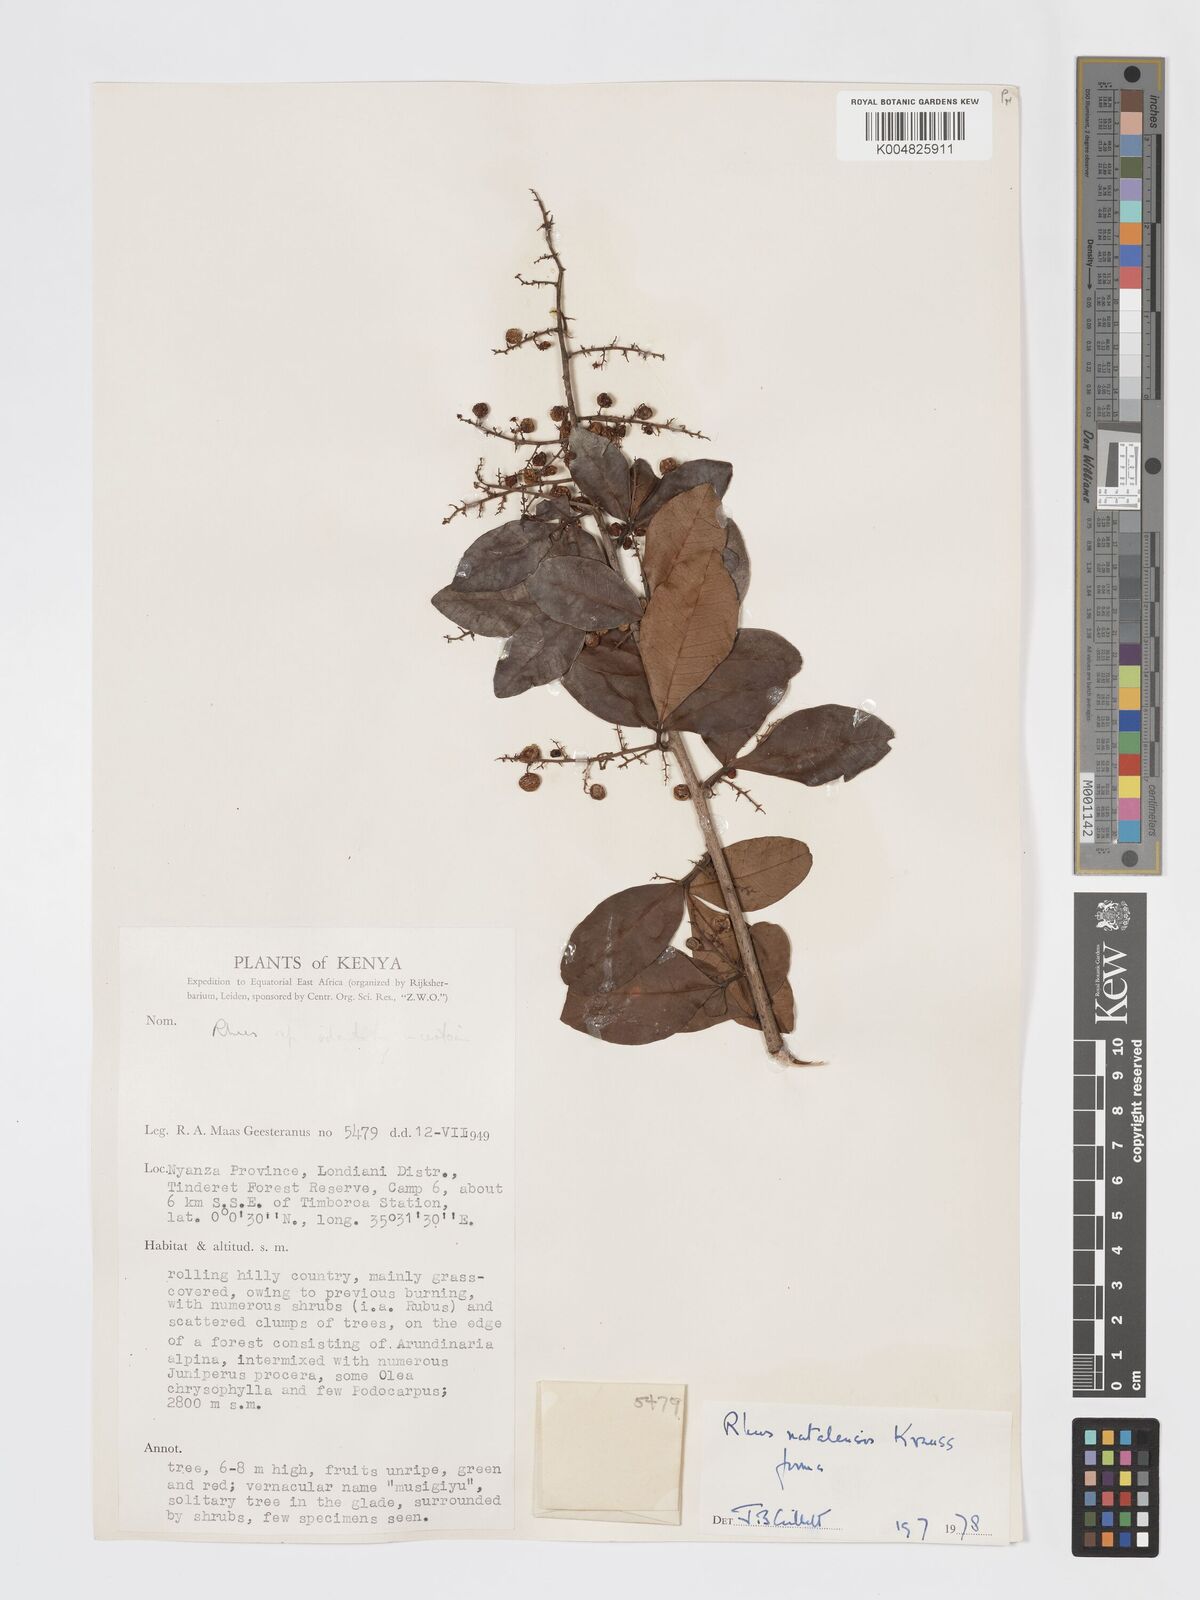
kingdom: Plantae
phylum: Tracheophyta
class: Magnoliopsida
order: Sapindales
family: Anacardiaceae
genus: Searsia
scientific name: Searsia natalensis
